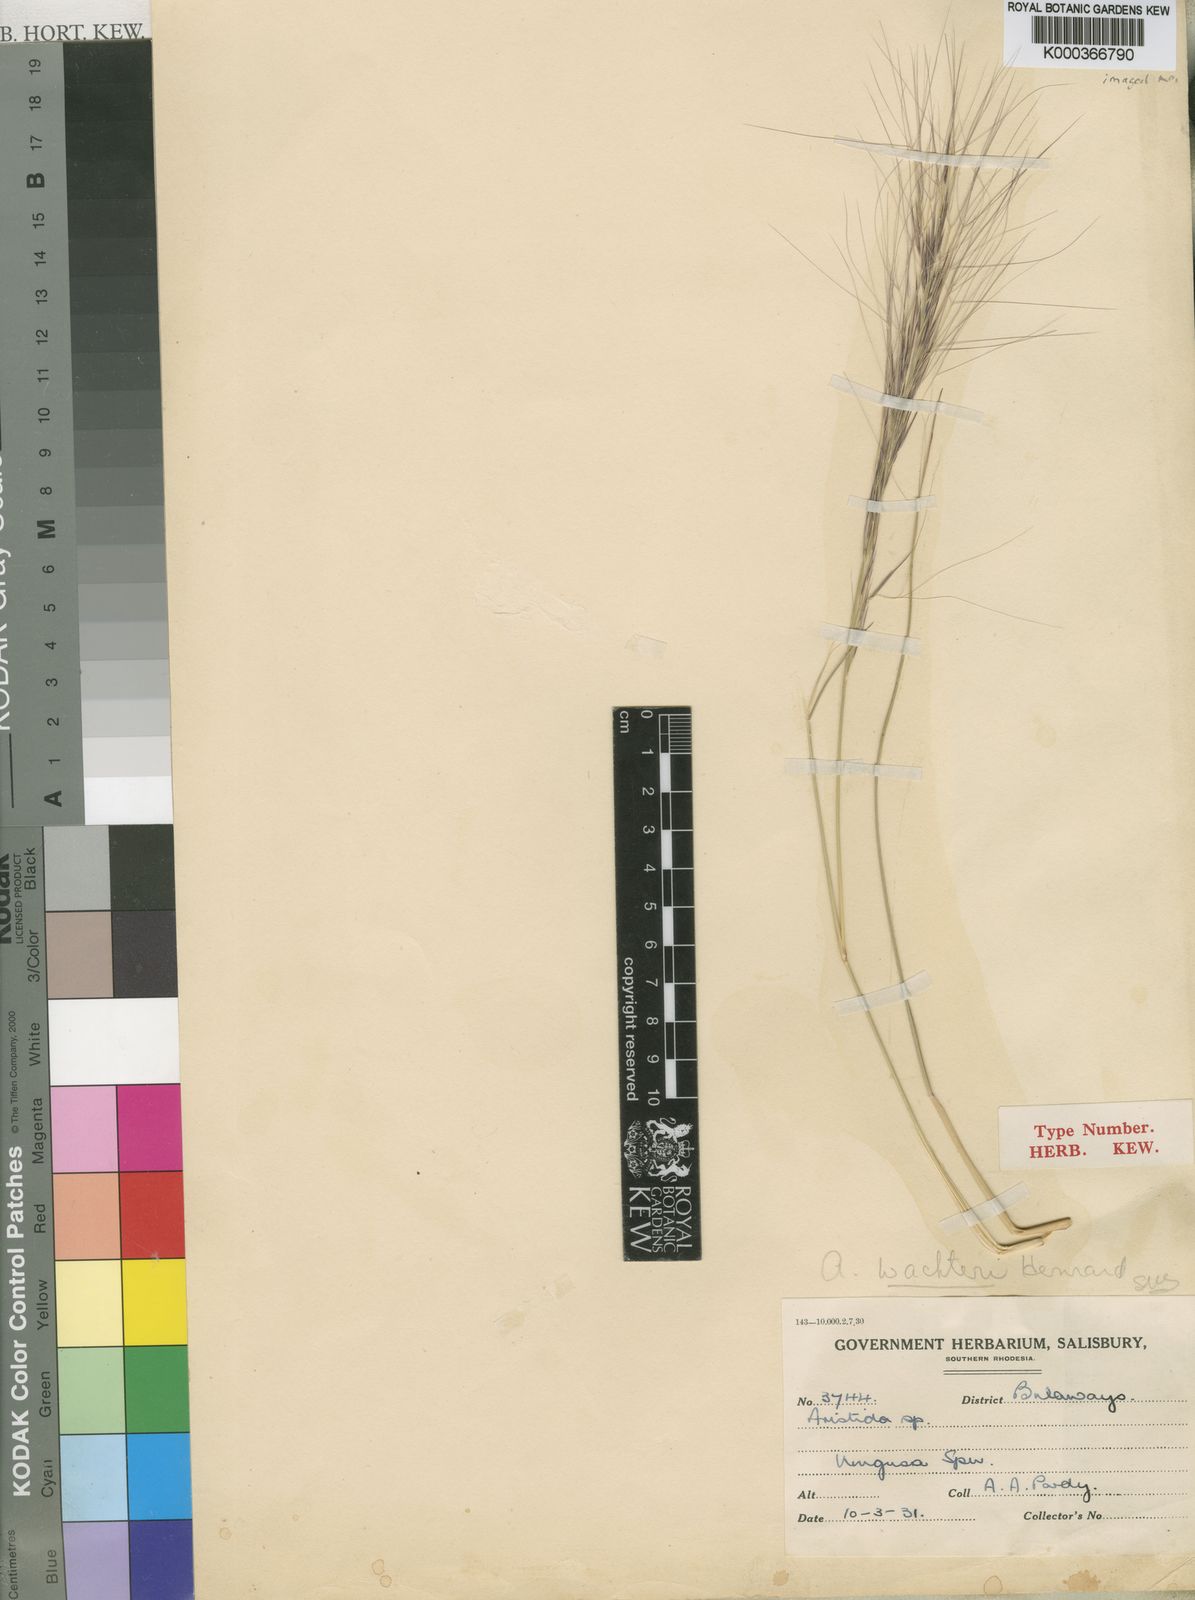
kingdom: Plantae
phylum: Tracheophyta
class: Liliopsida
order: Poales
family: Poaceae
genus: Aristida
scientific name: Aristida
